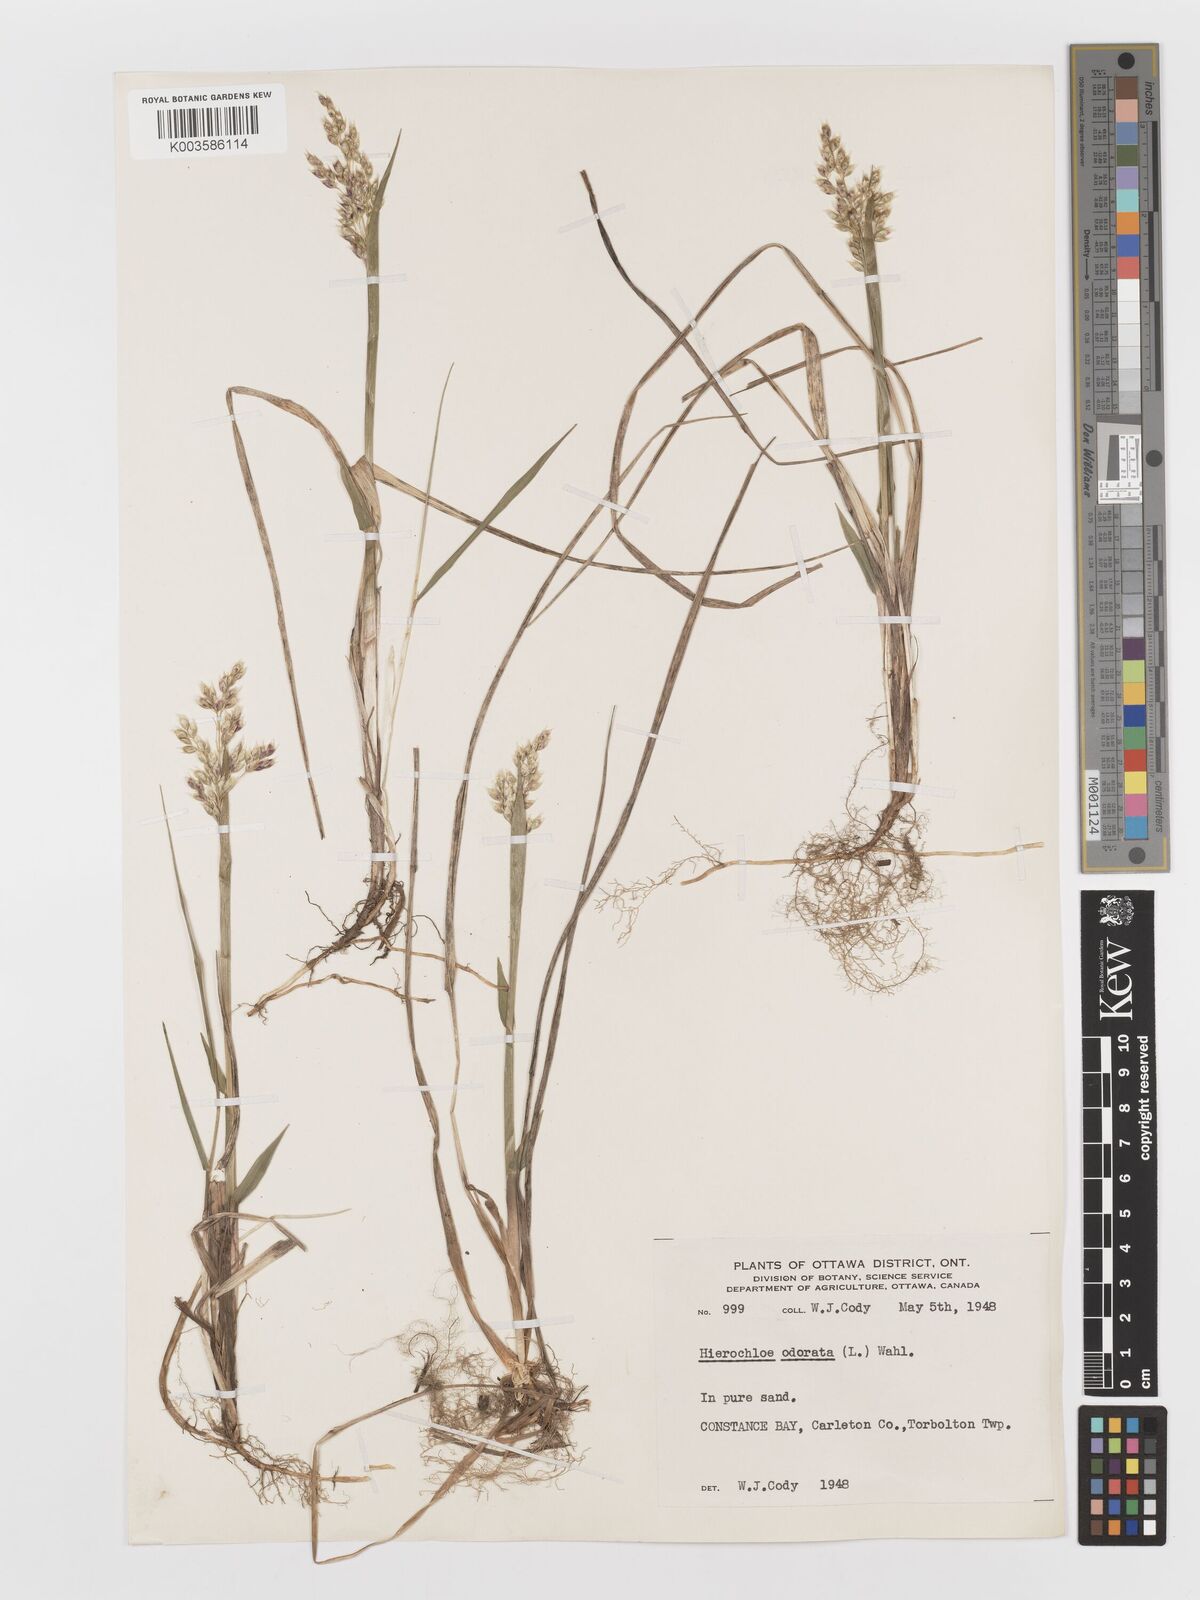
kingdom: Plantae
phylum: Tracheophyta
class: Liliopsida
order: Poales
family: Poaceae
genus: Anthoxanthum
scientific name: Anthoxanthum nitens
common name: Holy grass
